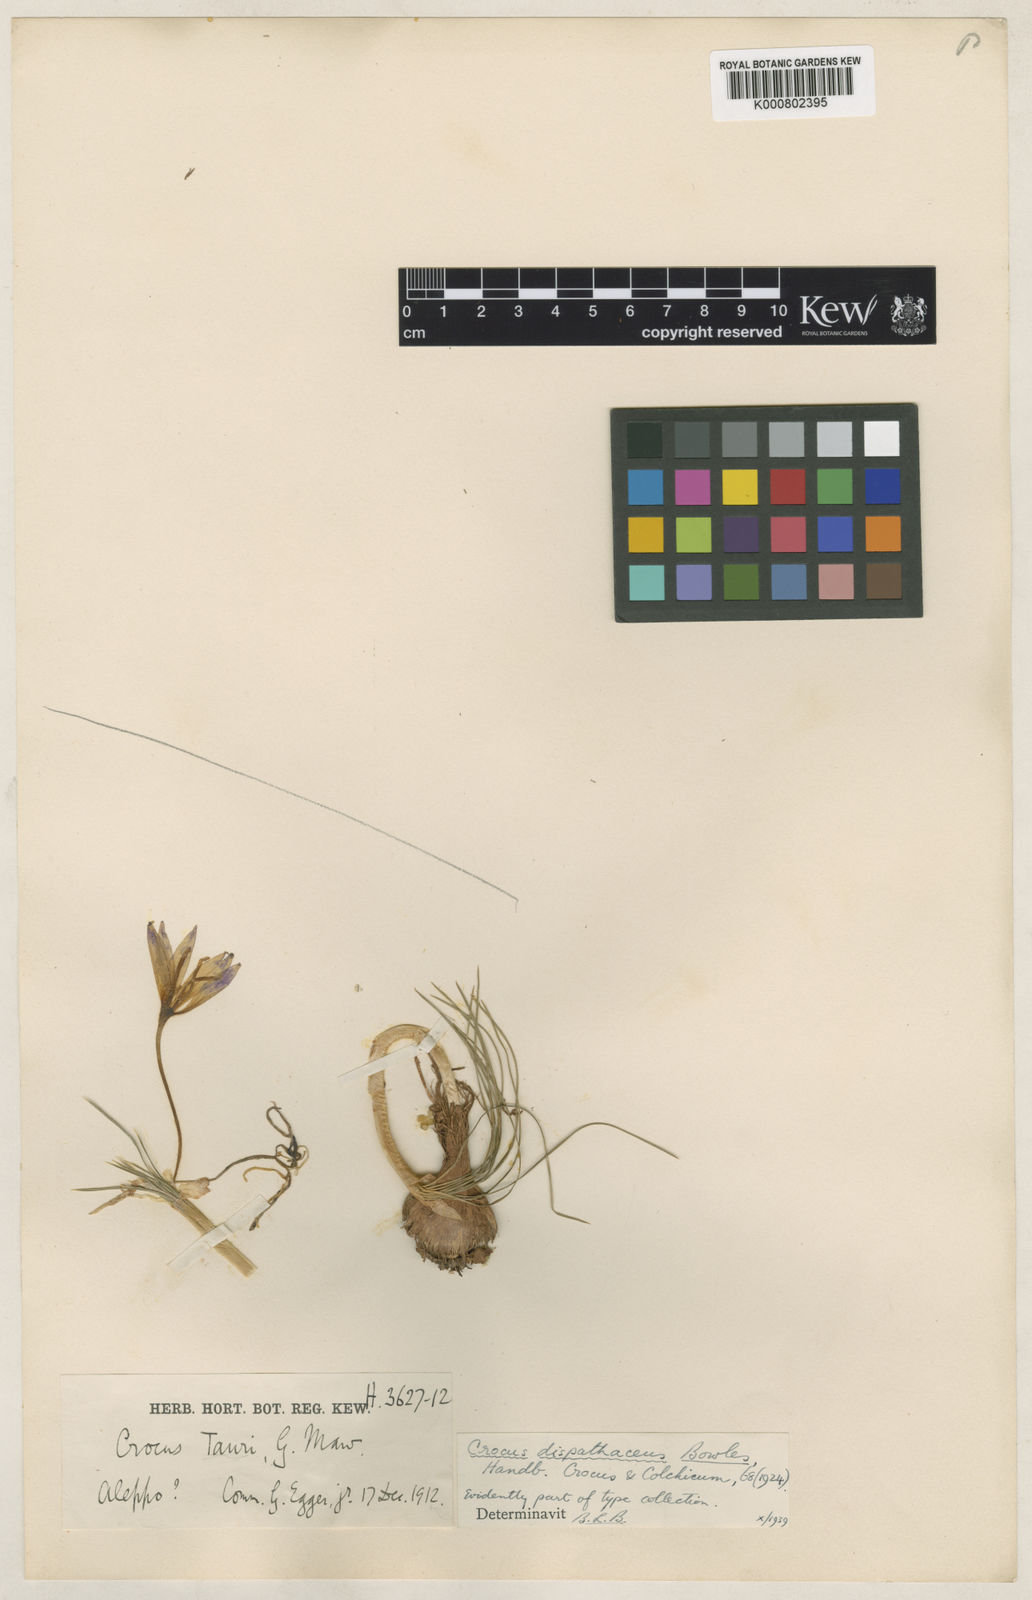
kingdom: Plantae
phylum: Tracheophyta
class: Liliopsida
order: Asparagales
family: Iridaceae
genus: Crocus
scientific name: Crocus dispathaceus
